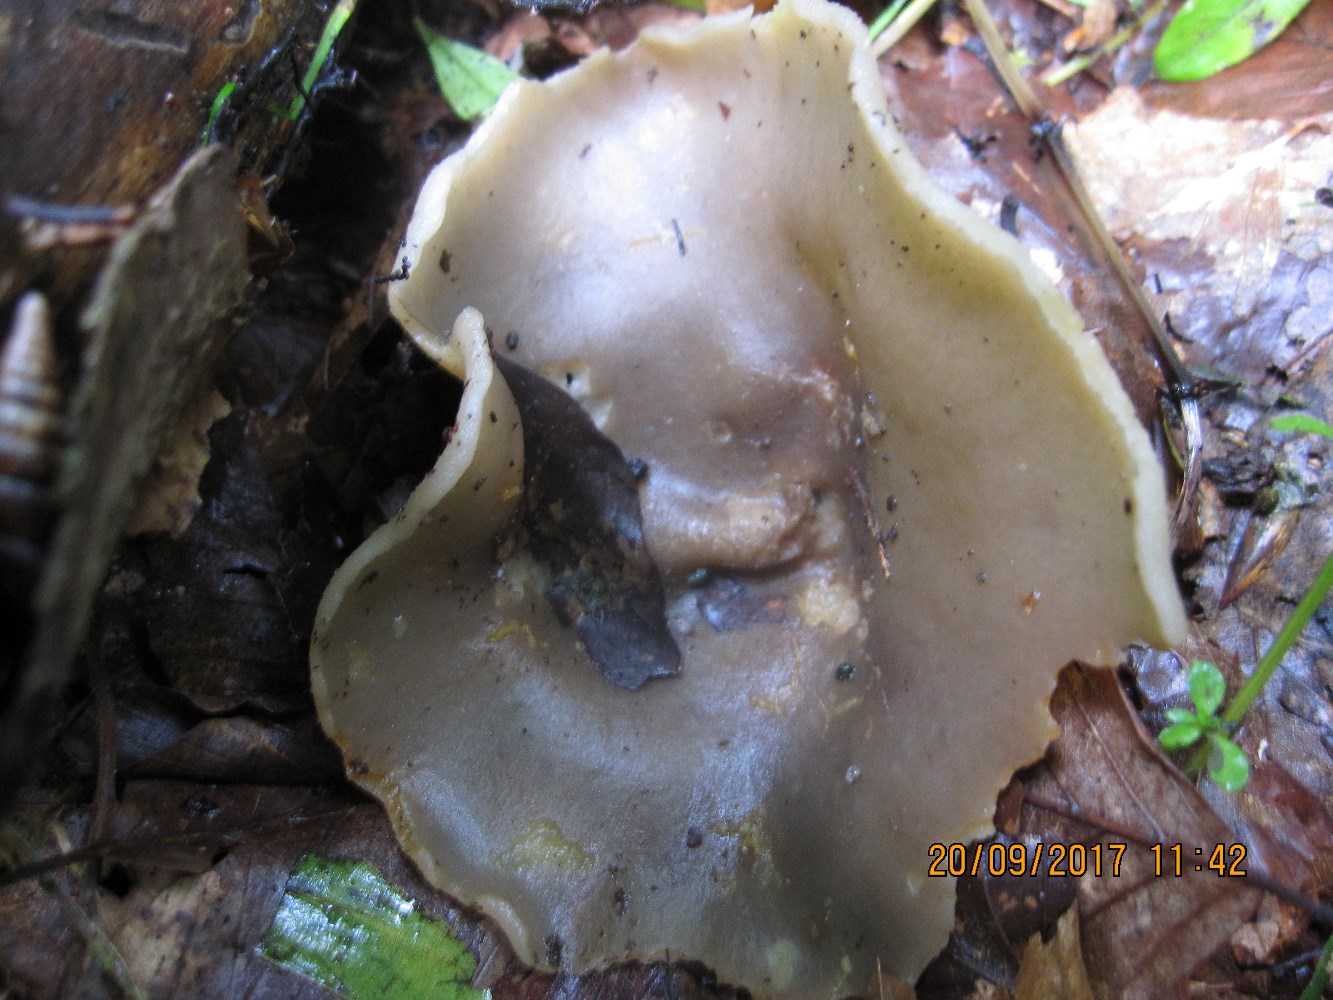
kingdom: Fungi
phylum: Ascomycota
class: Pezizomycetes
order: Pezizales
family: Pezizaceae
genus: Malvipezia
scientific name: Malvipezia emileia
